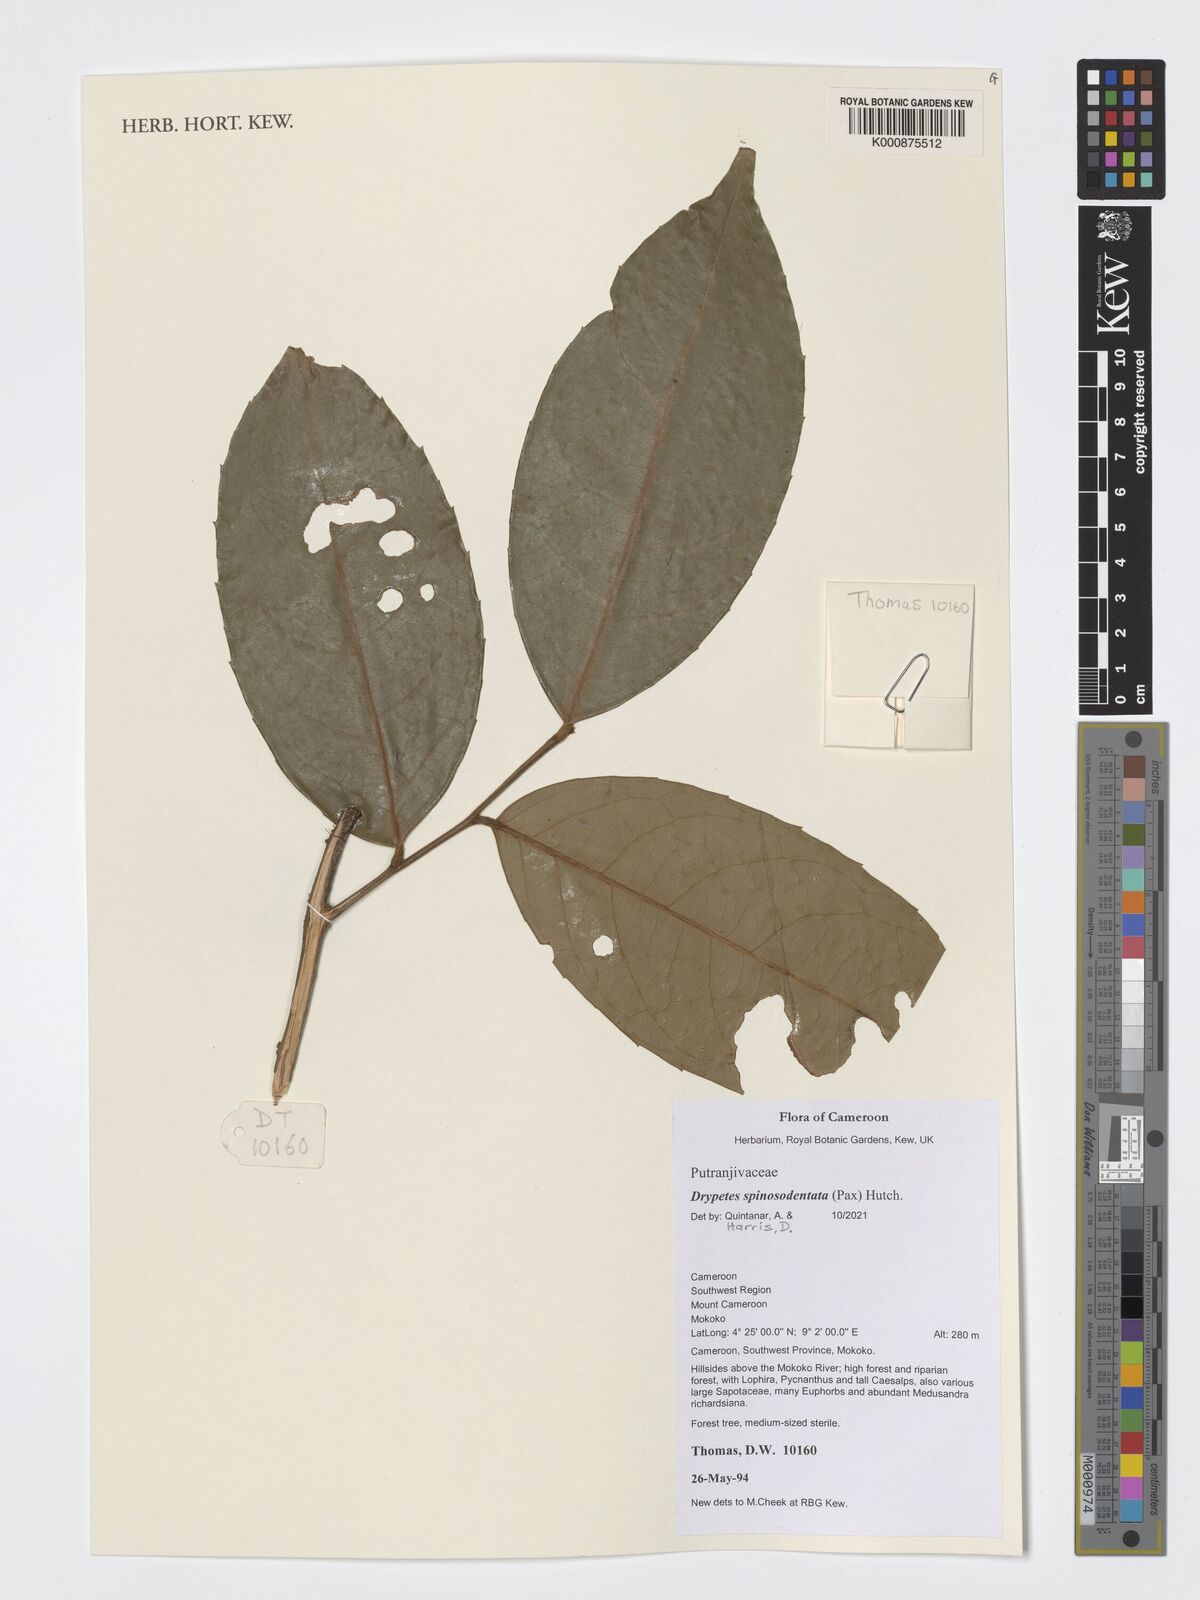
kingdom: Plantae
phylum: Tracheophyta
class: Magnoliopsida
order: Malpighiales
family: Putranjivaceae
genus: Drypetes
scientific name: Drypetes spinosodentata
